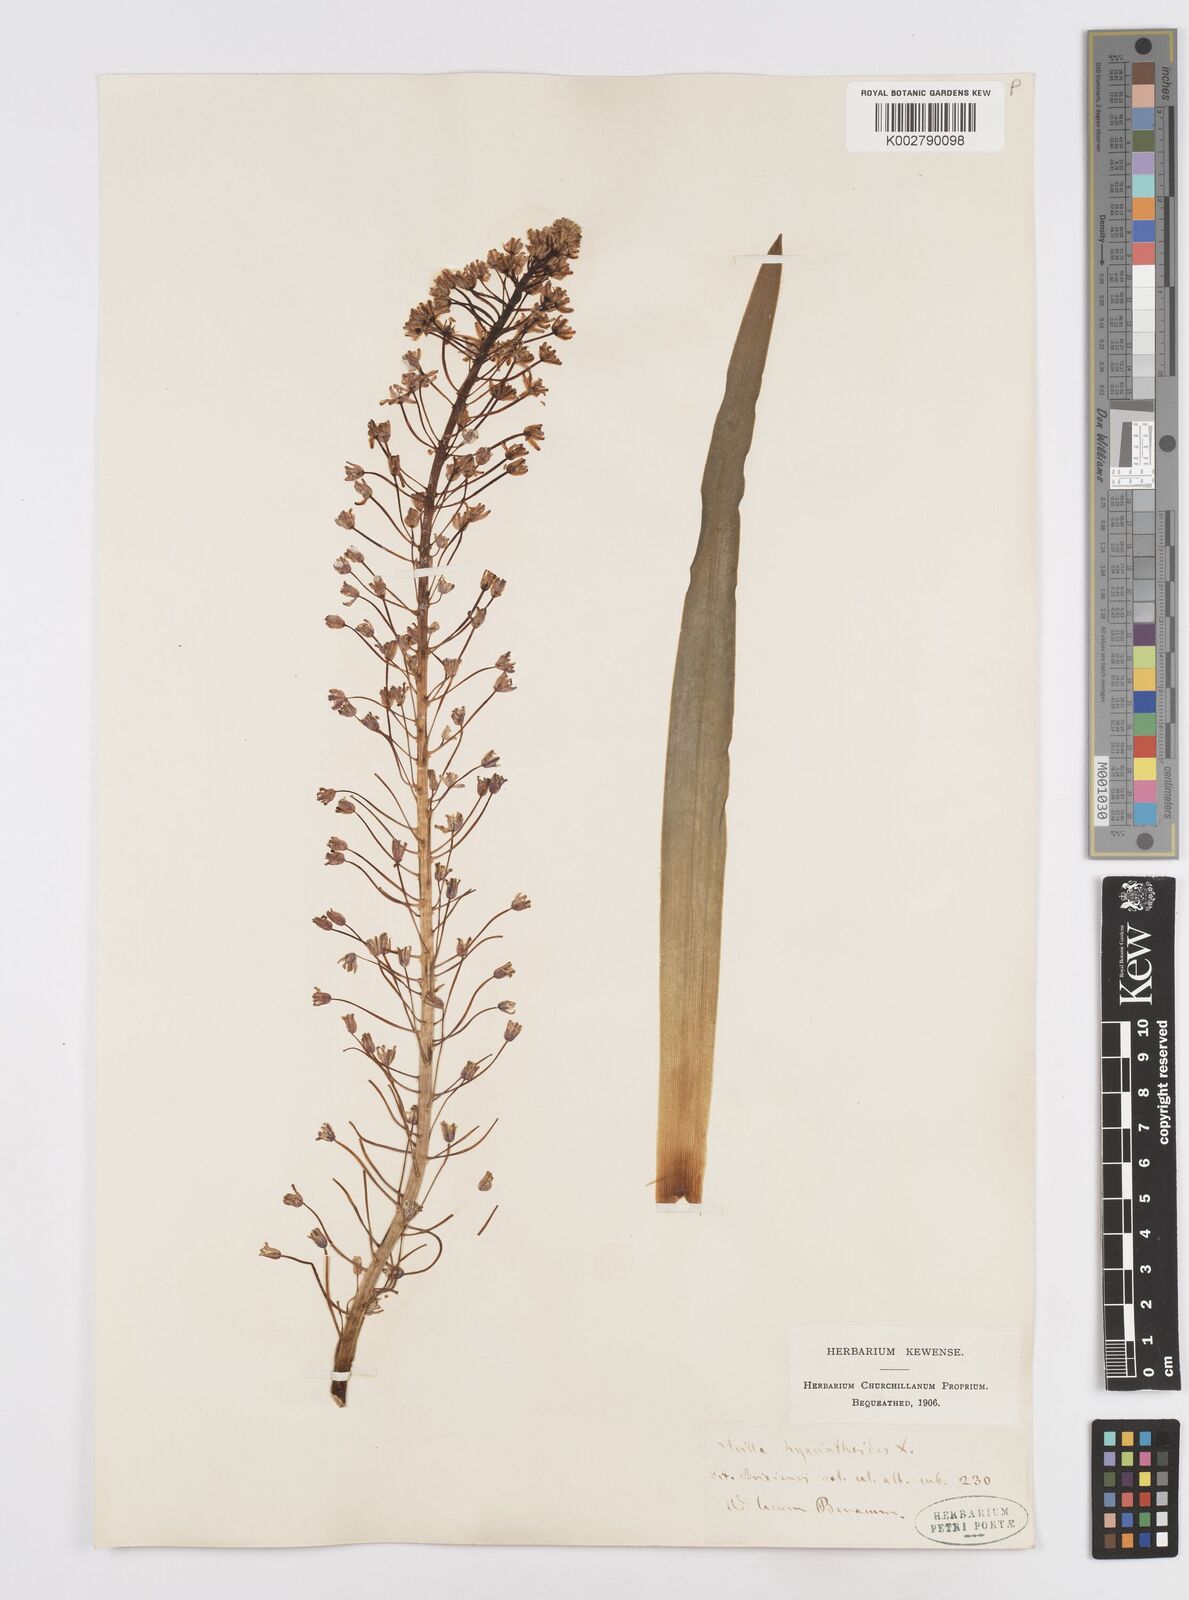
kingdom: Plantae
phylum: Tracheophyta
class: Liliopsida
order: Asparagales
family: Asparagaceae
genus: Scilla
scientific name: Scilla hyacinthoides
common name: Scilla
